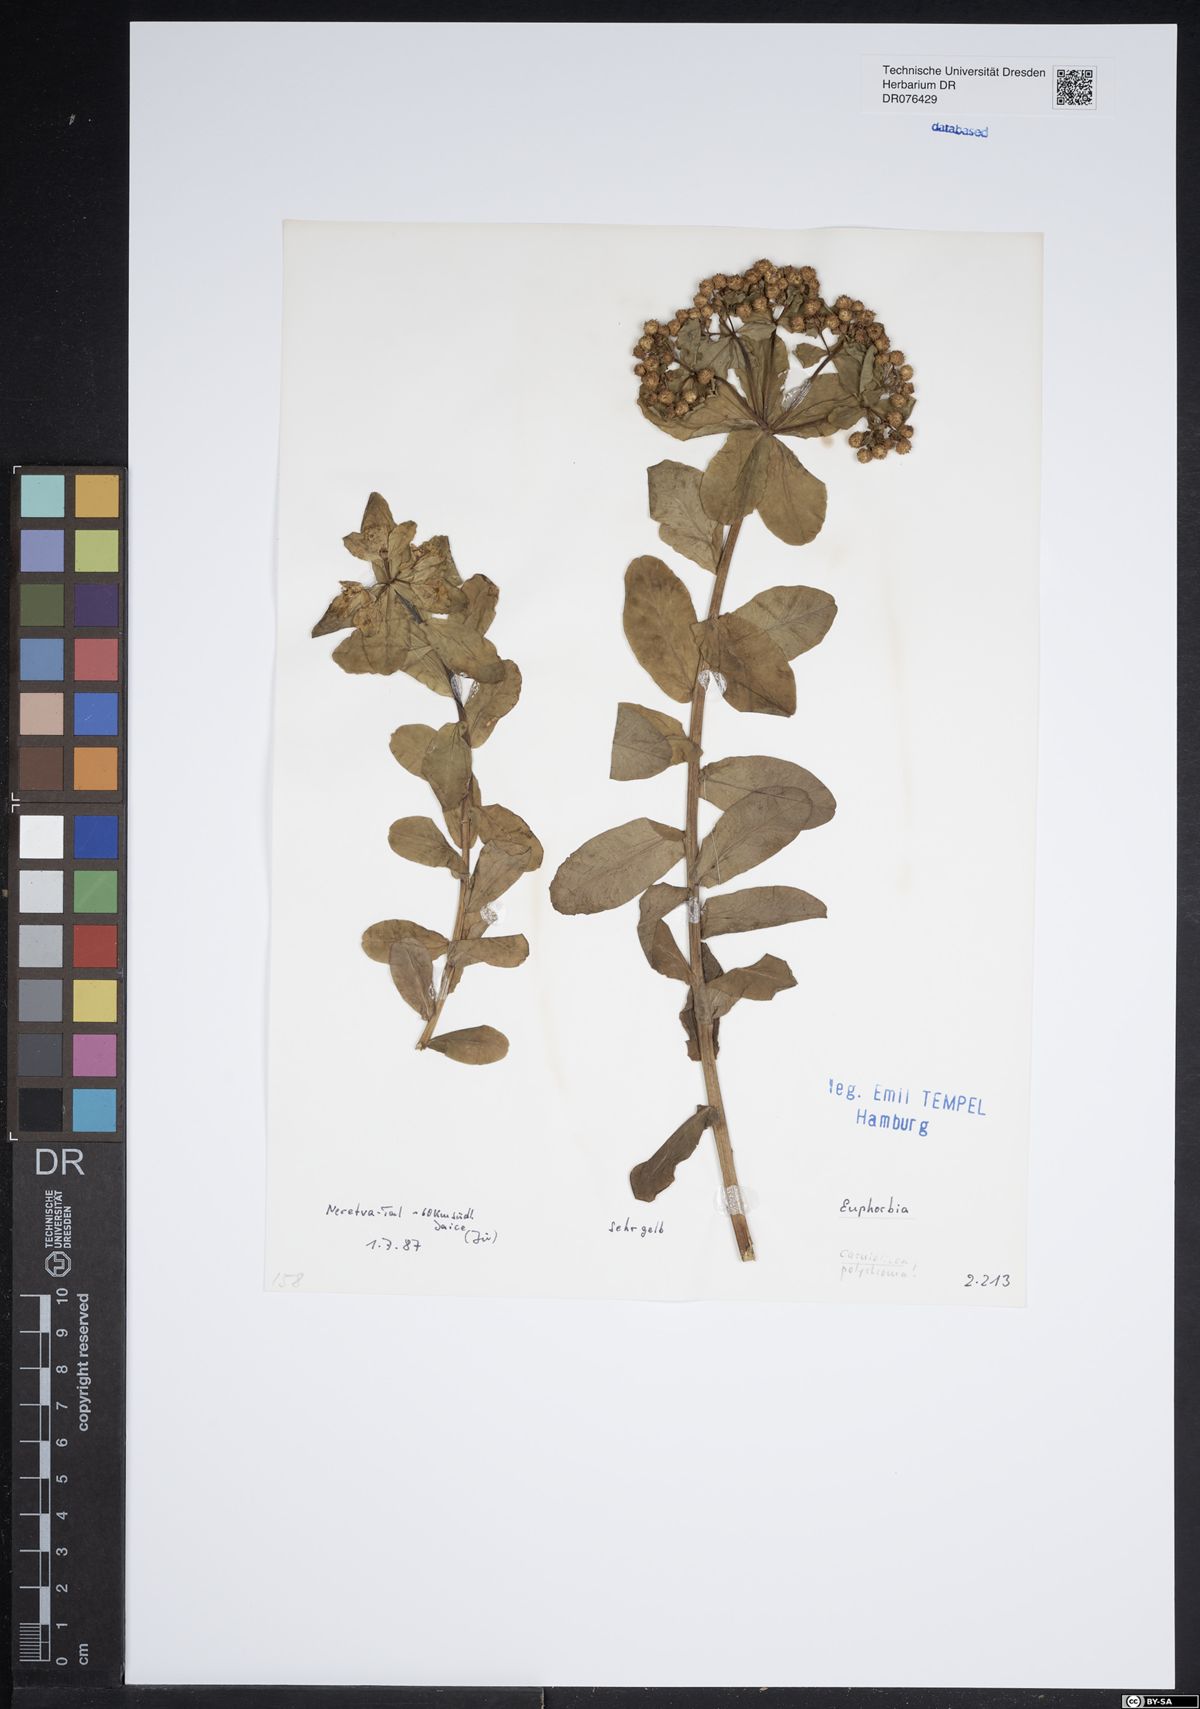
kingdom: Plantae
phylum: Tracheophyta
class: Magnoliopsida
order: Malpighiales
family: Euphorbiaceae
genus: Euphorbia
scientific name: Euphorbia carniolica
